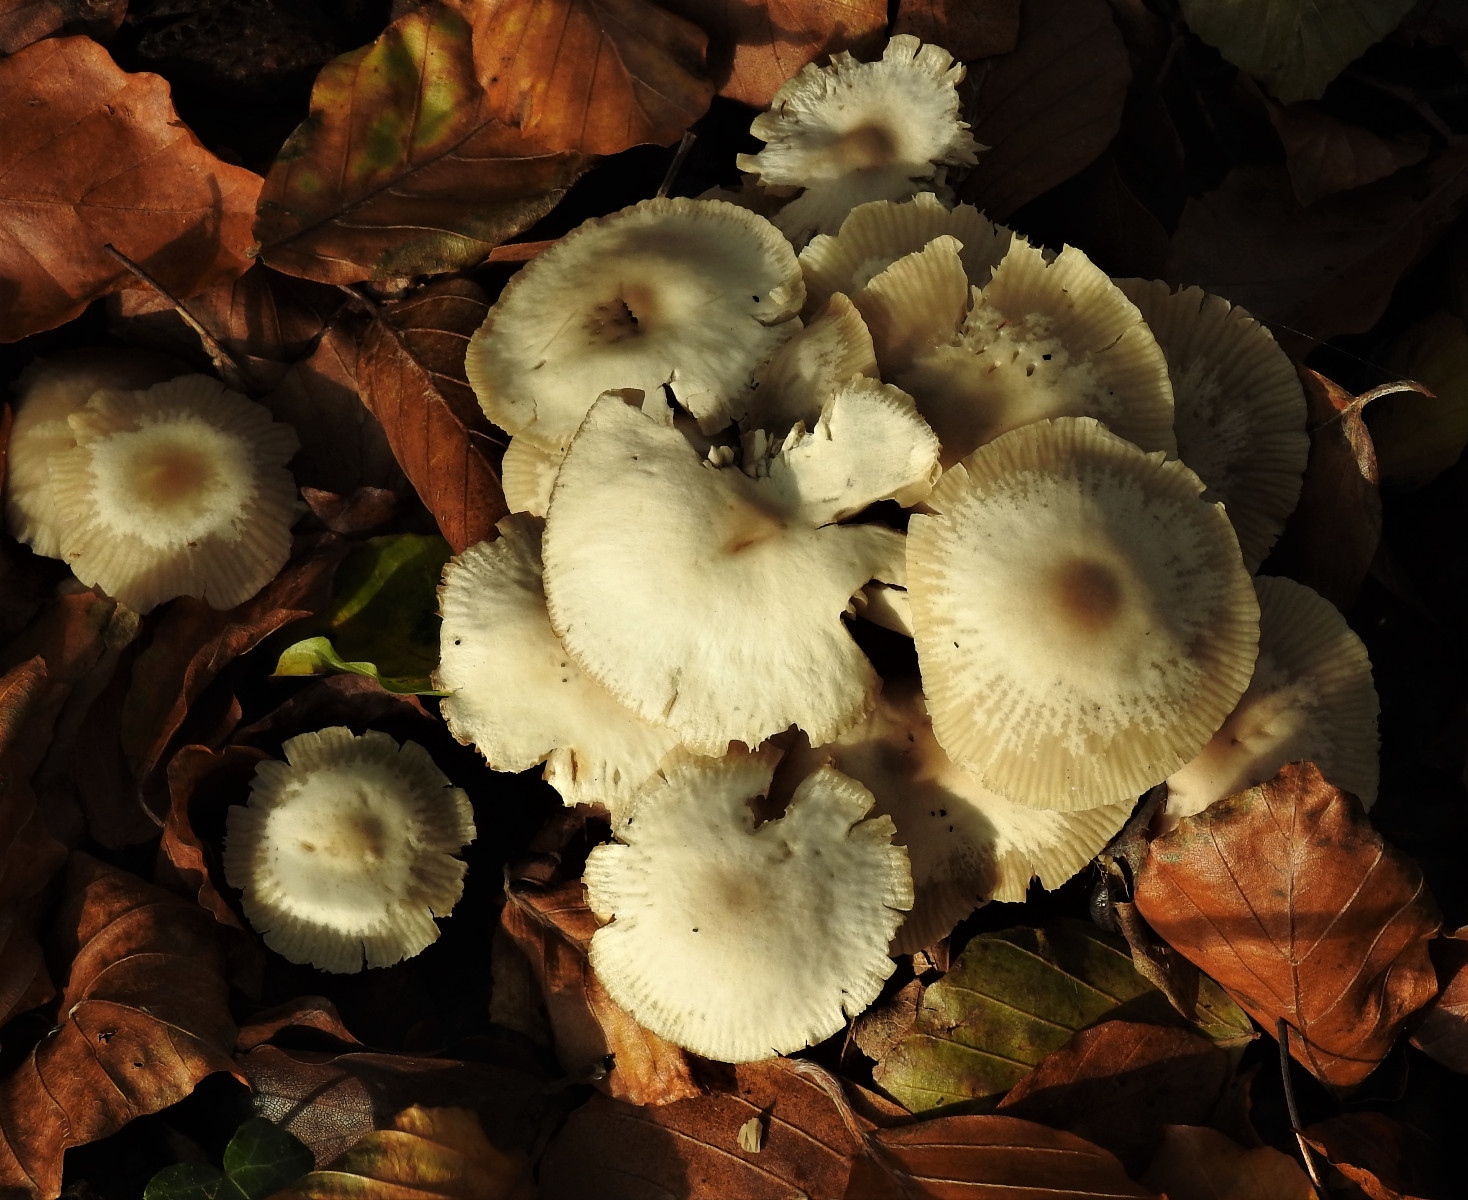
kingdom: Fungi
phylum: Basidiomycota
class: Agaricomycetes
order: Agaricales
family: Marasmiaceae
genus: Marasmius
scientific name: Marasmius wynneae
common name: hvælvet bruskhat
